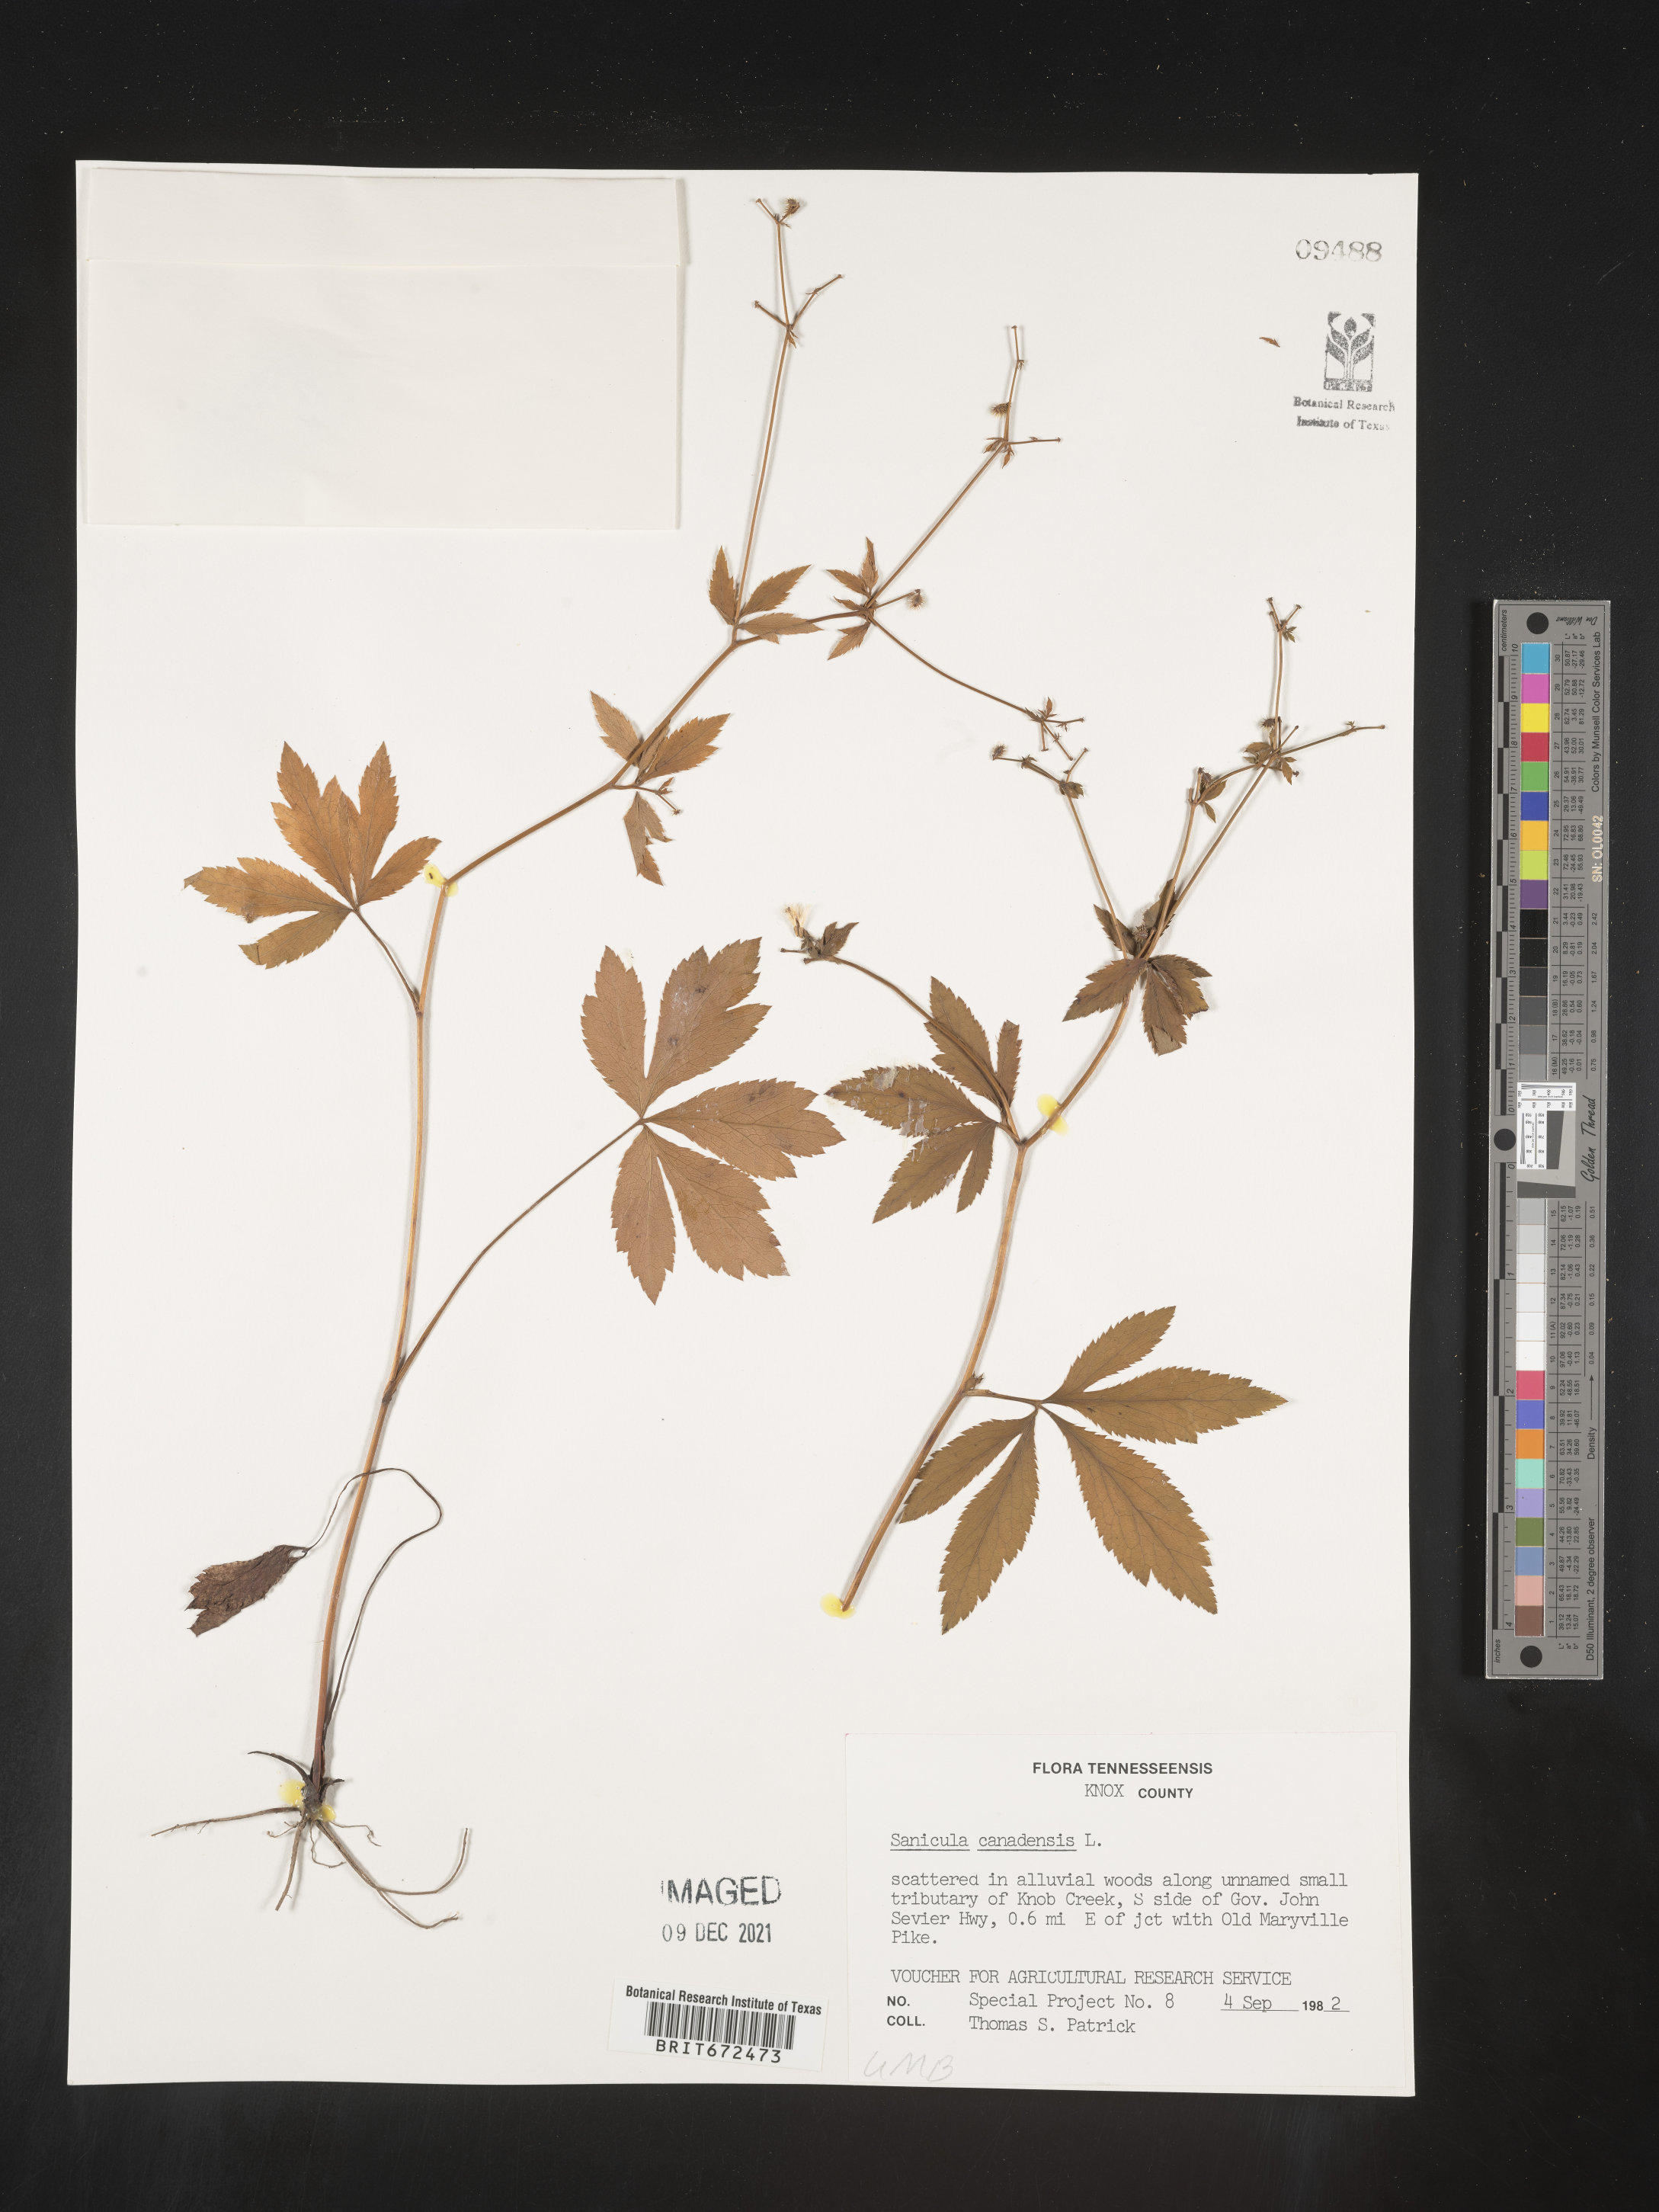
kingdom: Plantae
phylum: Tracheophyta
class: Magnoliopsida
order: Apiales
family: Apiaceae
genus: Sanicula
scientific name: Sanicula canadensis
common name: Canada sanicle
